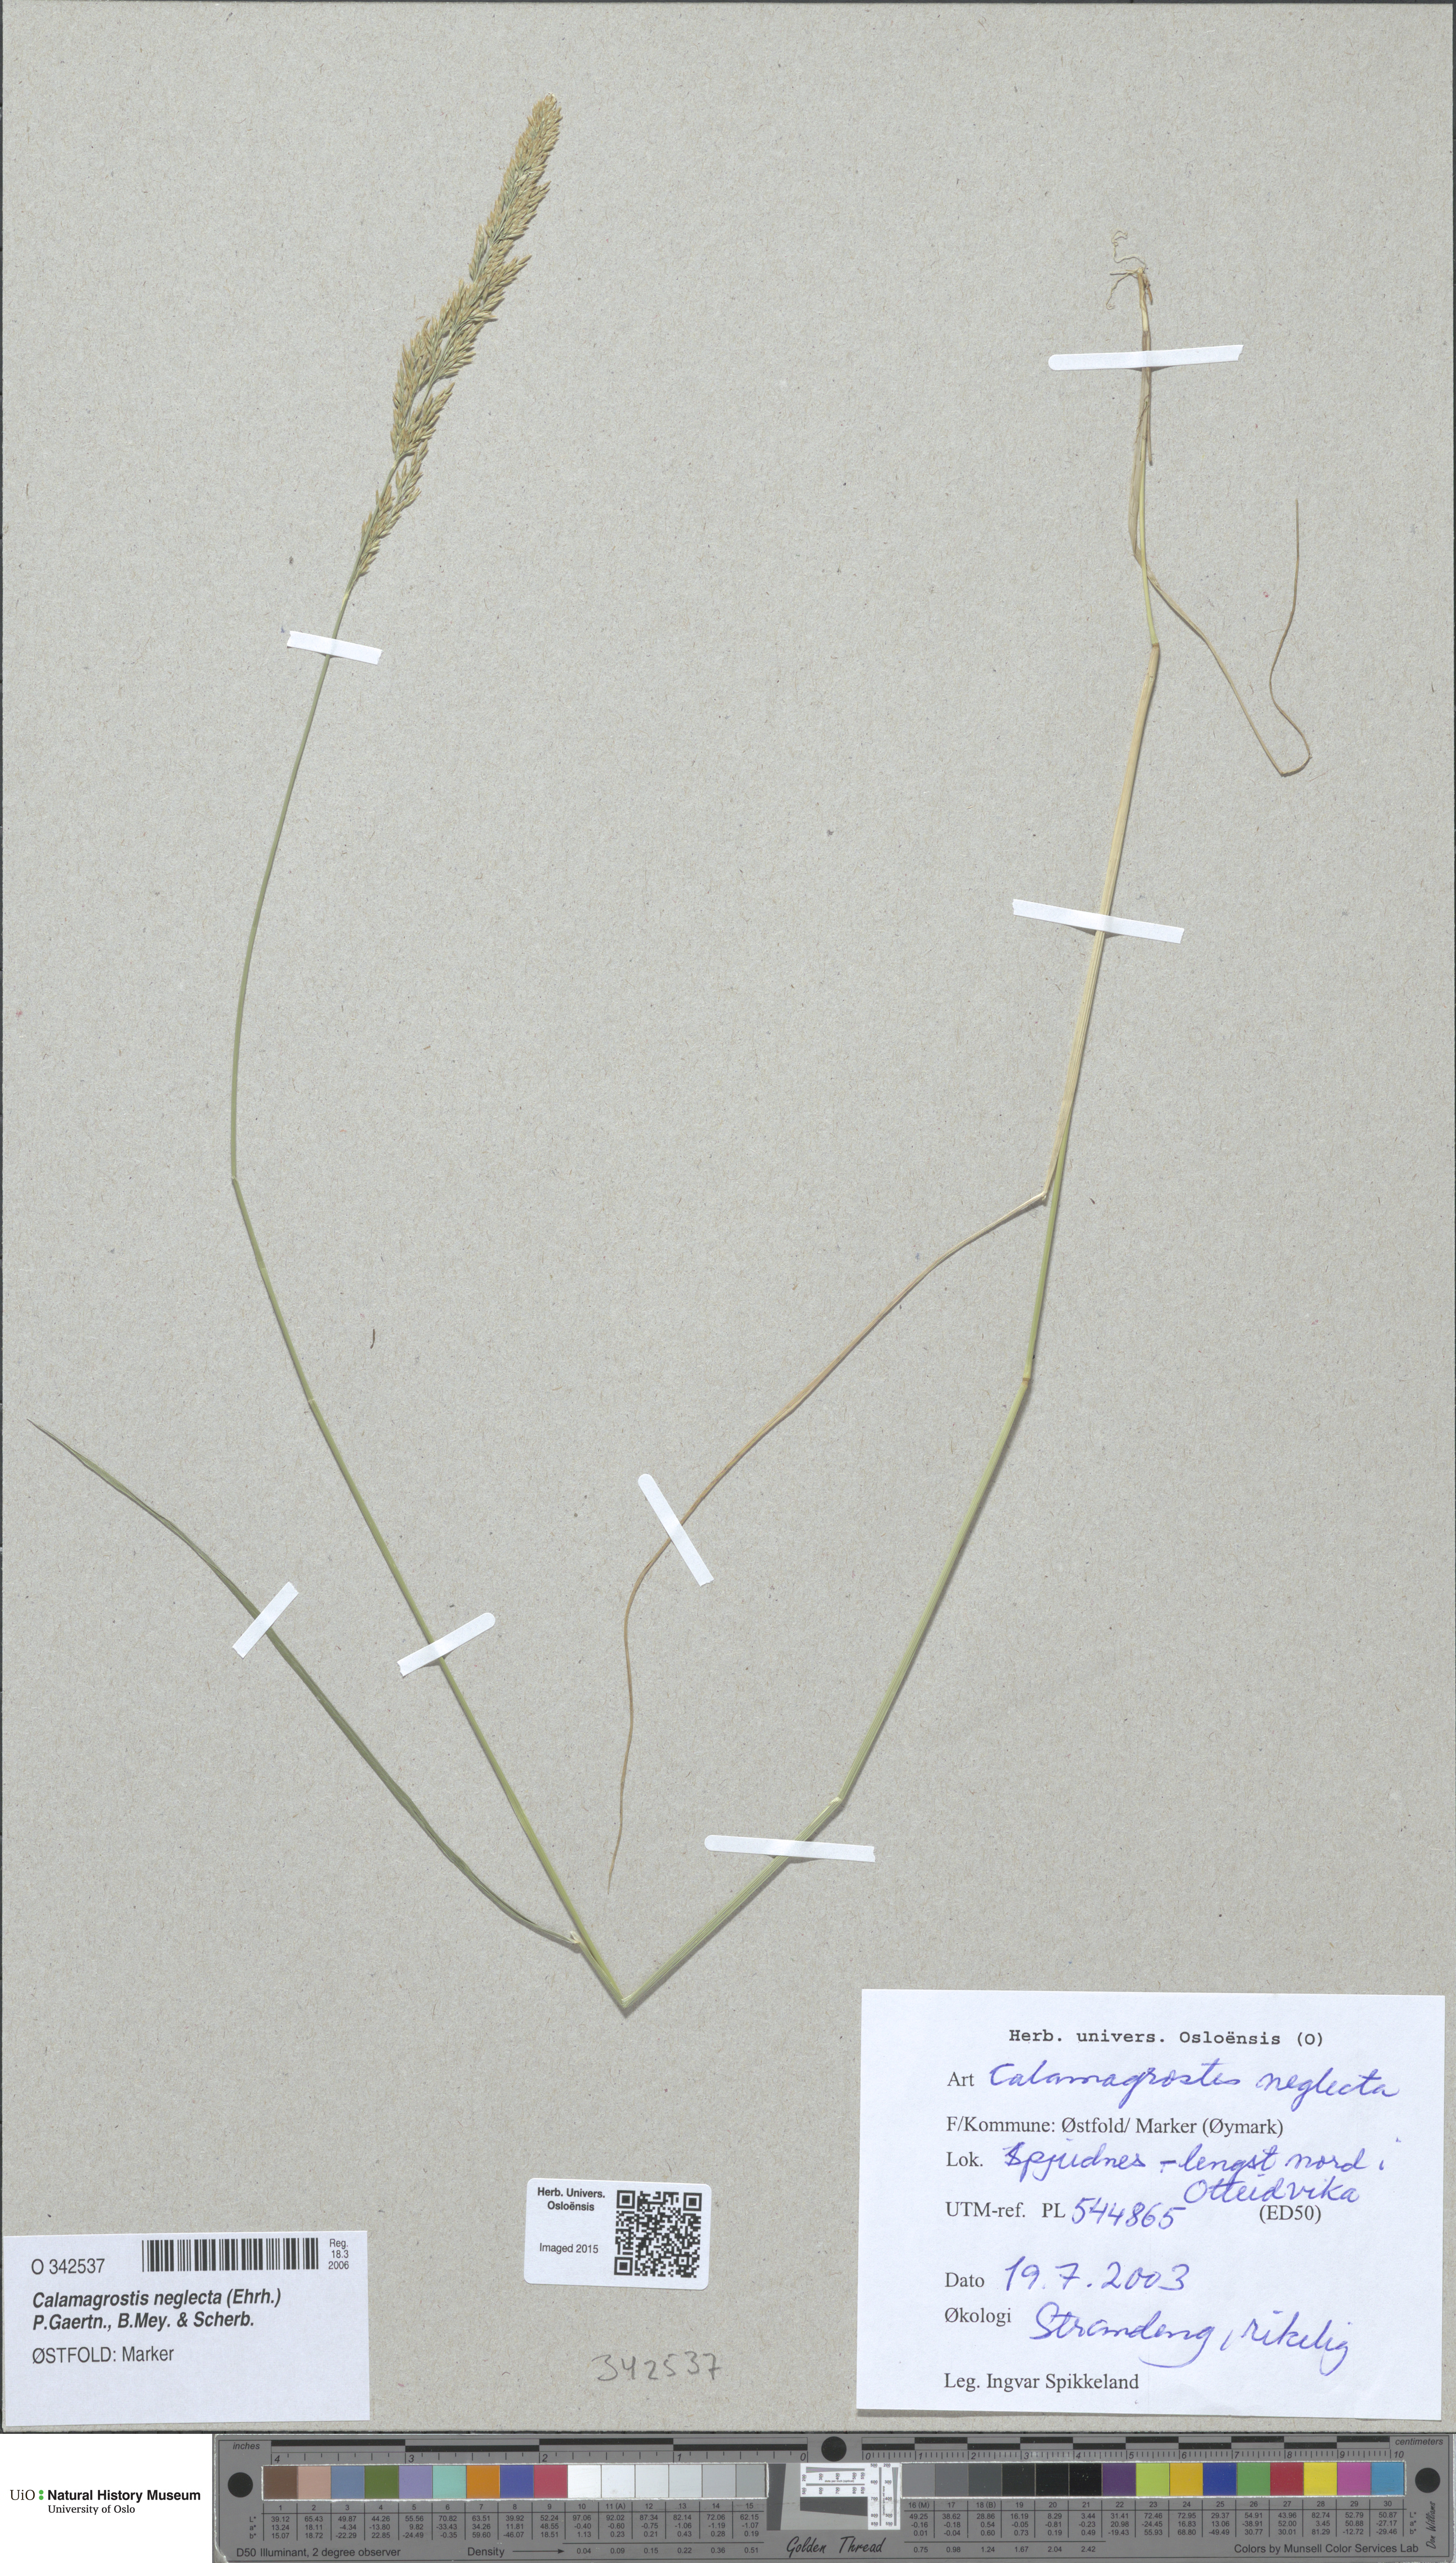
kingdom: Plantae
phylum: Tracheophyta
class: Liliopsida
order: Poales
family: Poaceae
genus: Achnatherum
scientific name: Achnatherum calamagrostis
